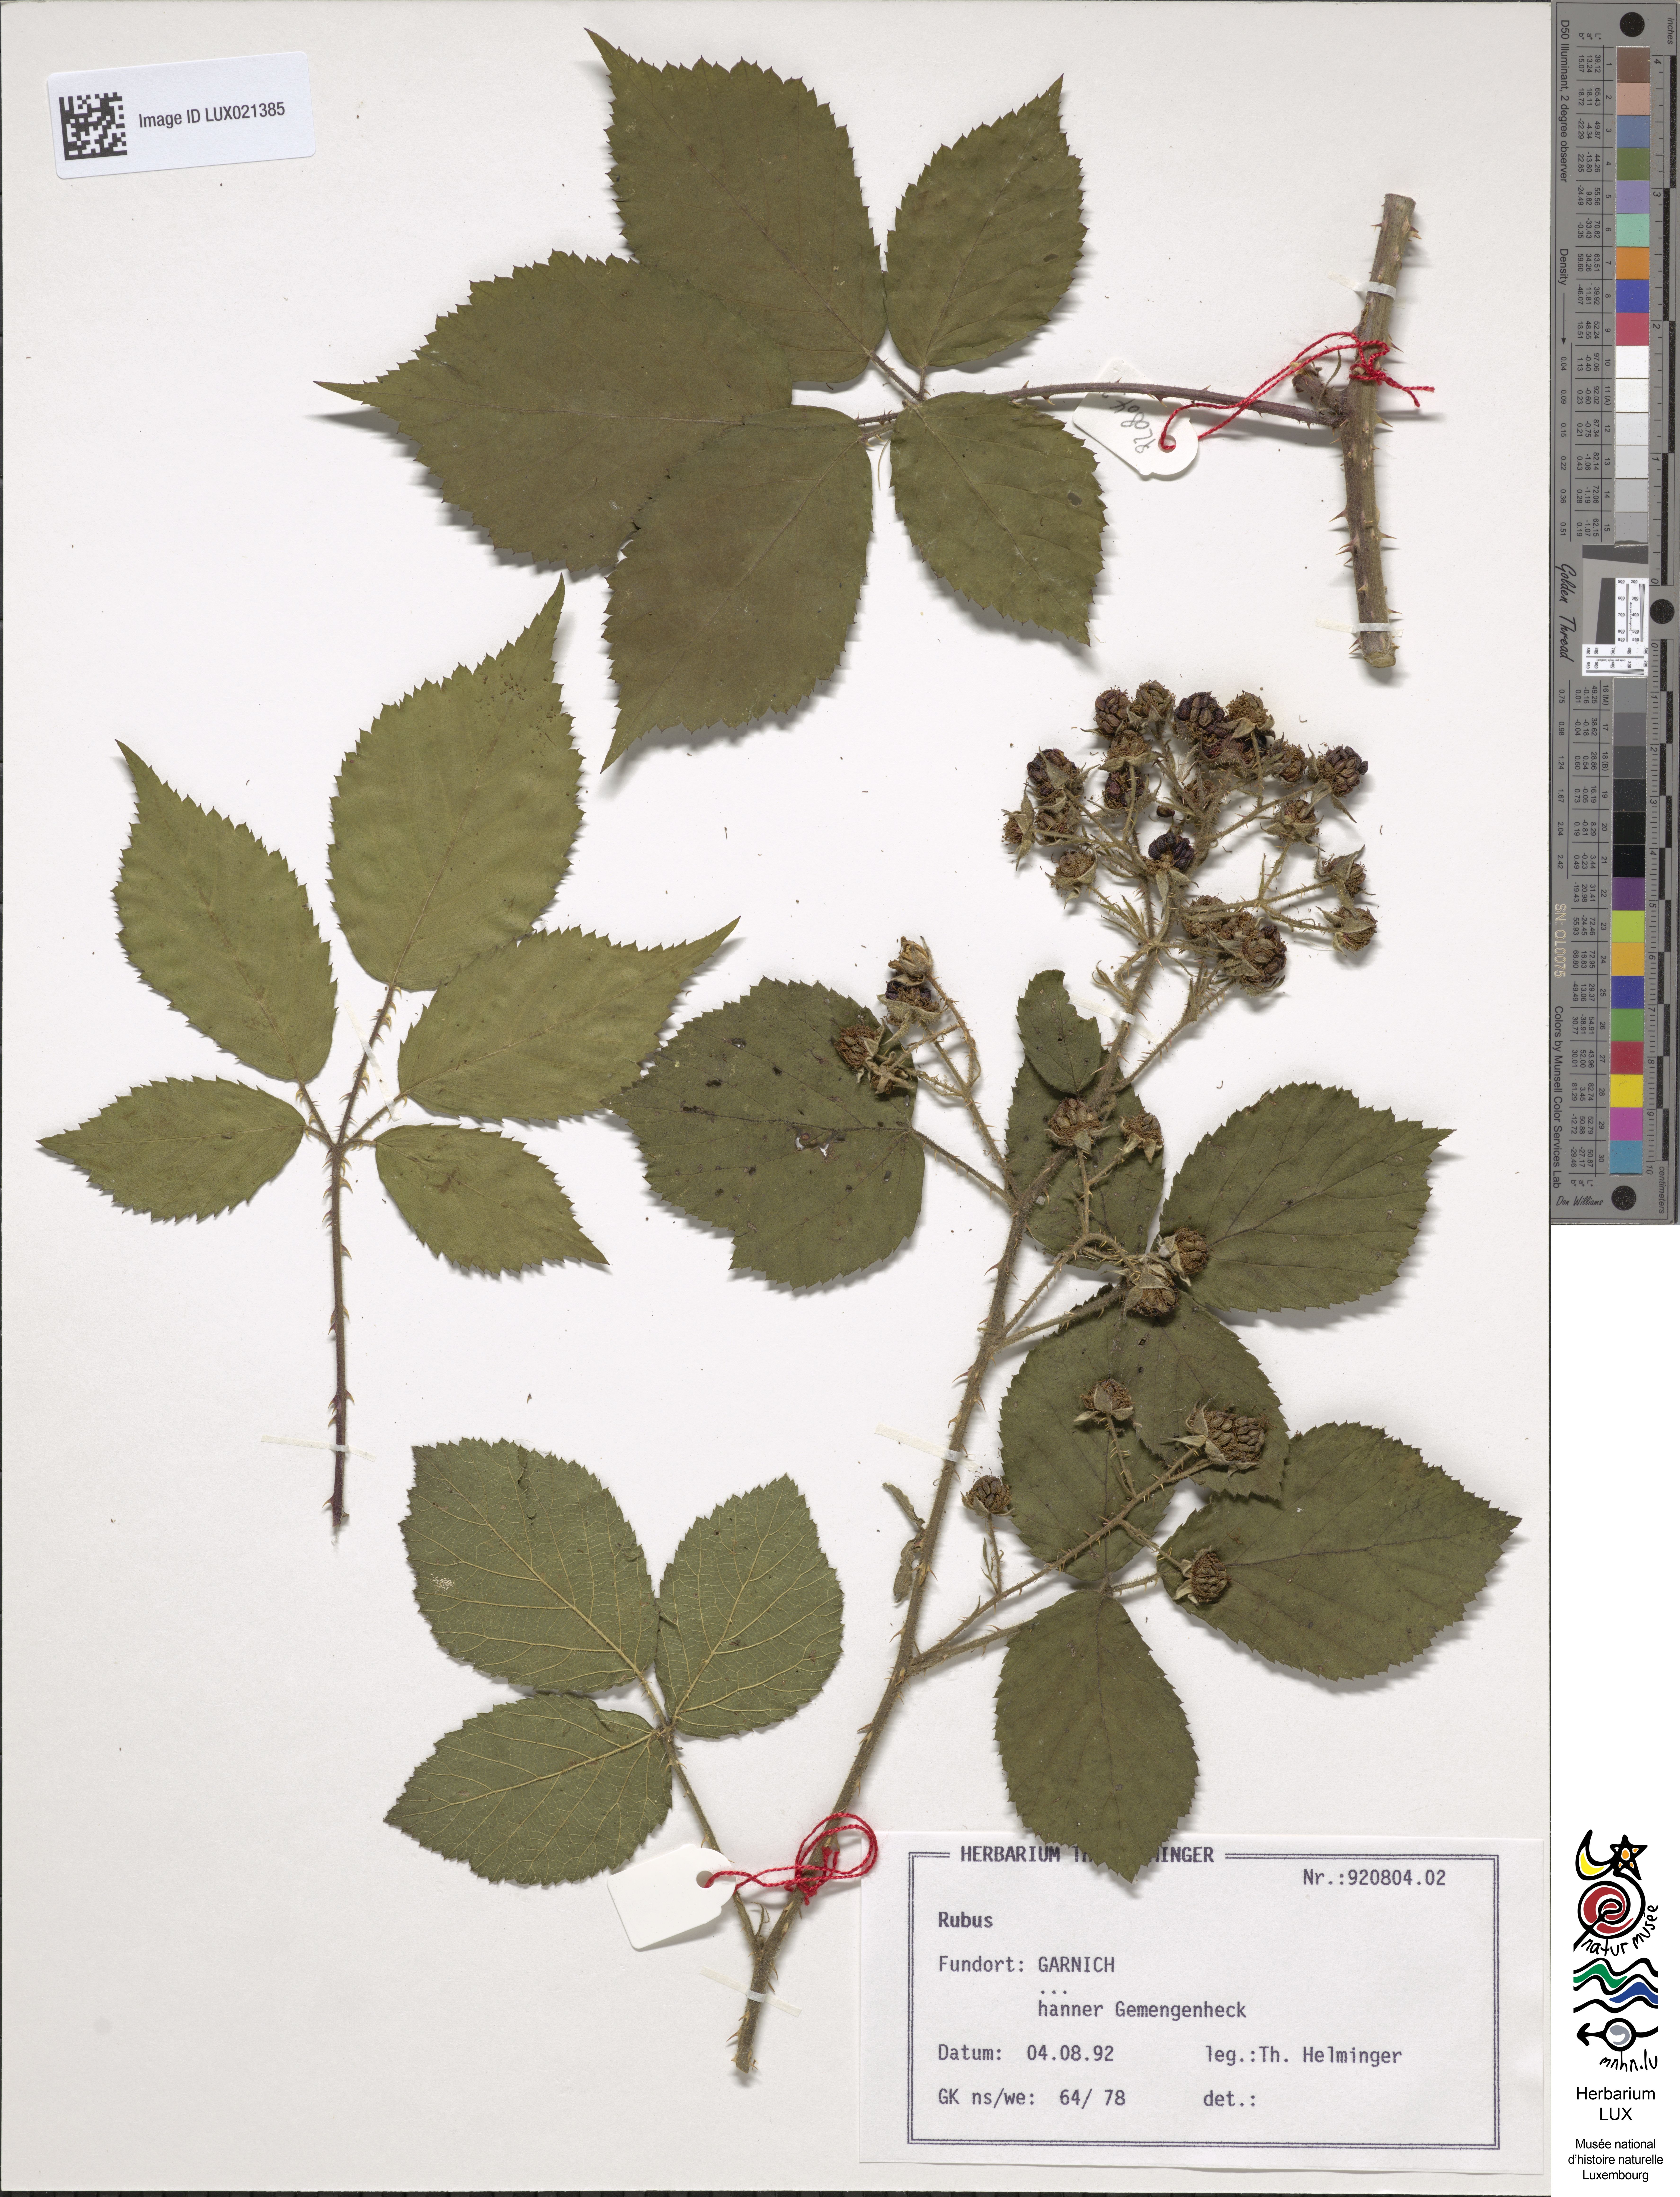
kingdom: Plantae
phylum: Tracheophyta
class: Magnoliopsida
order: Rosales
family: Rosaceae
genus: Rubus
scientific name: Rubus
